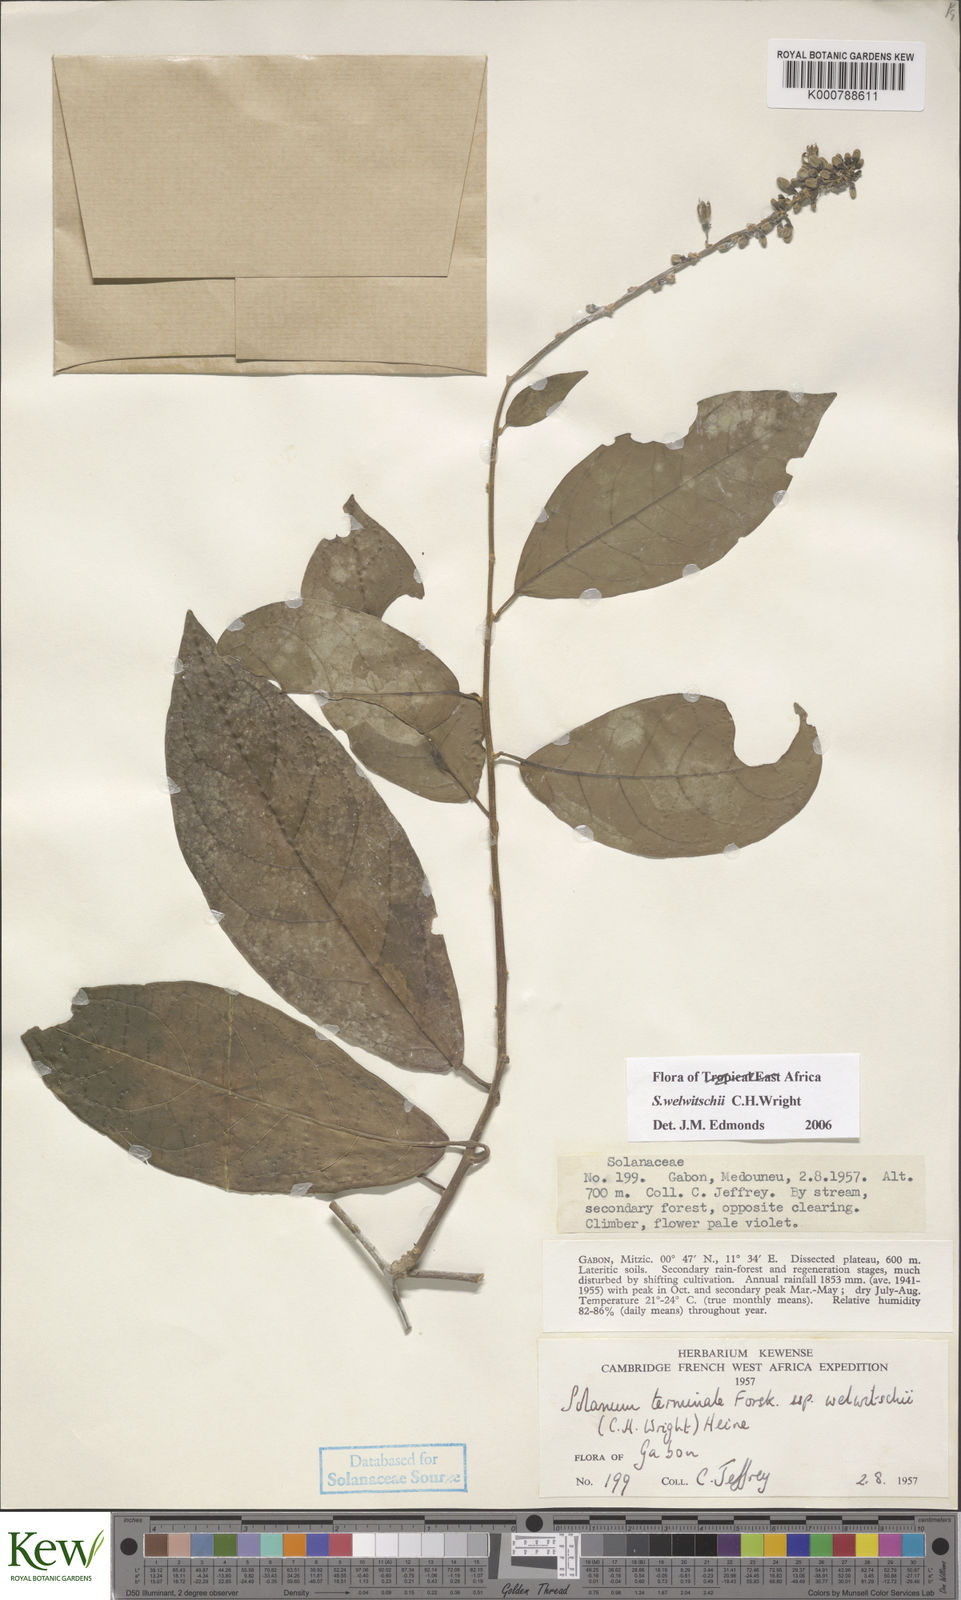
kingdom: Plantae
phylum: Tracheophyta
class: Magnoliopsida
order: Solanales
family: Solanaceae
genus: Solanum
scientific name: Solanum terminale
